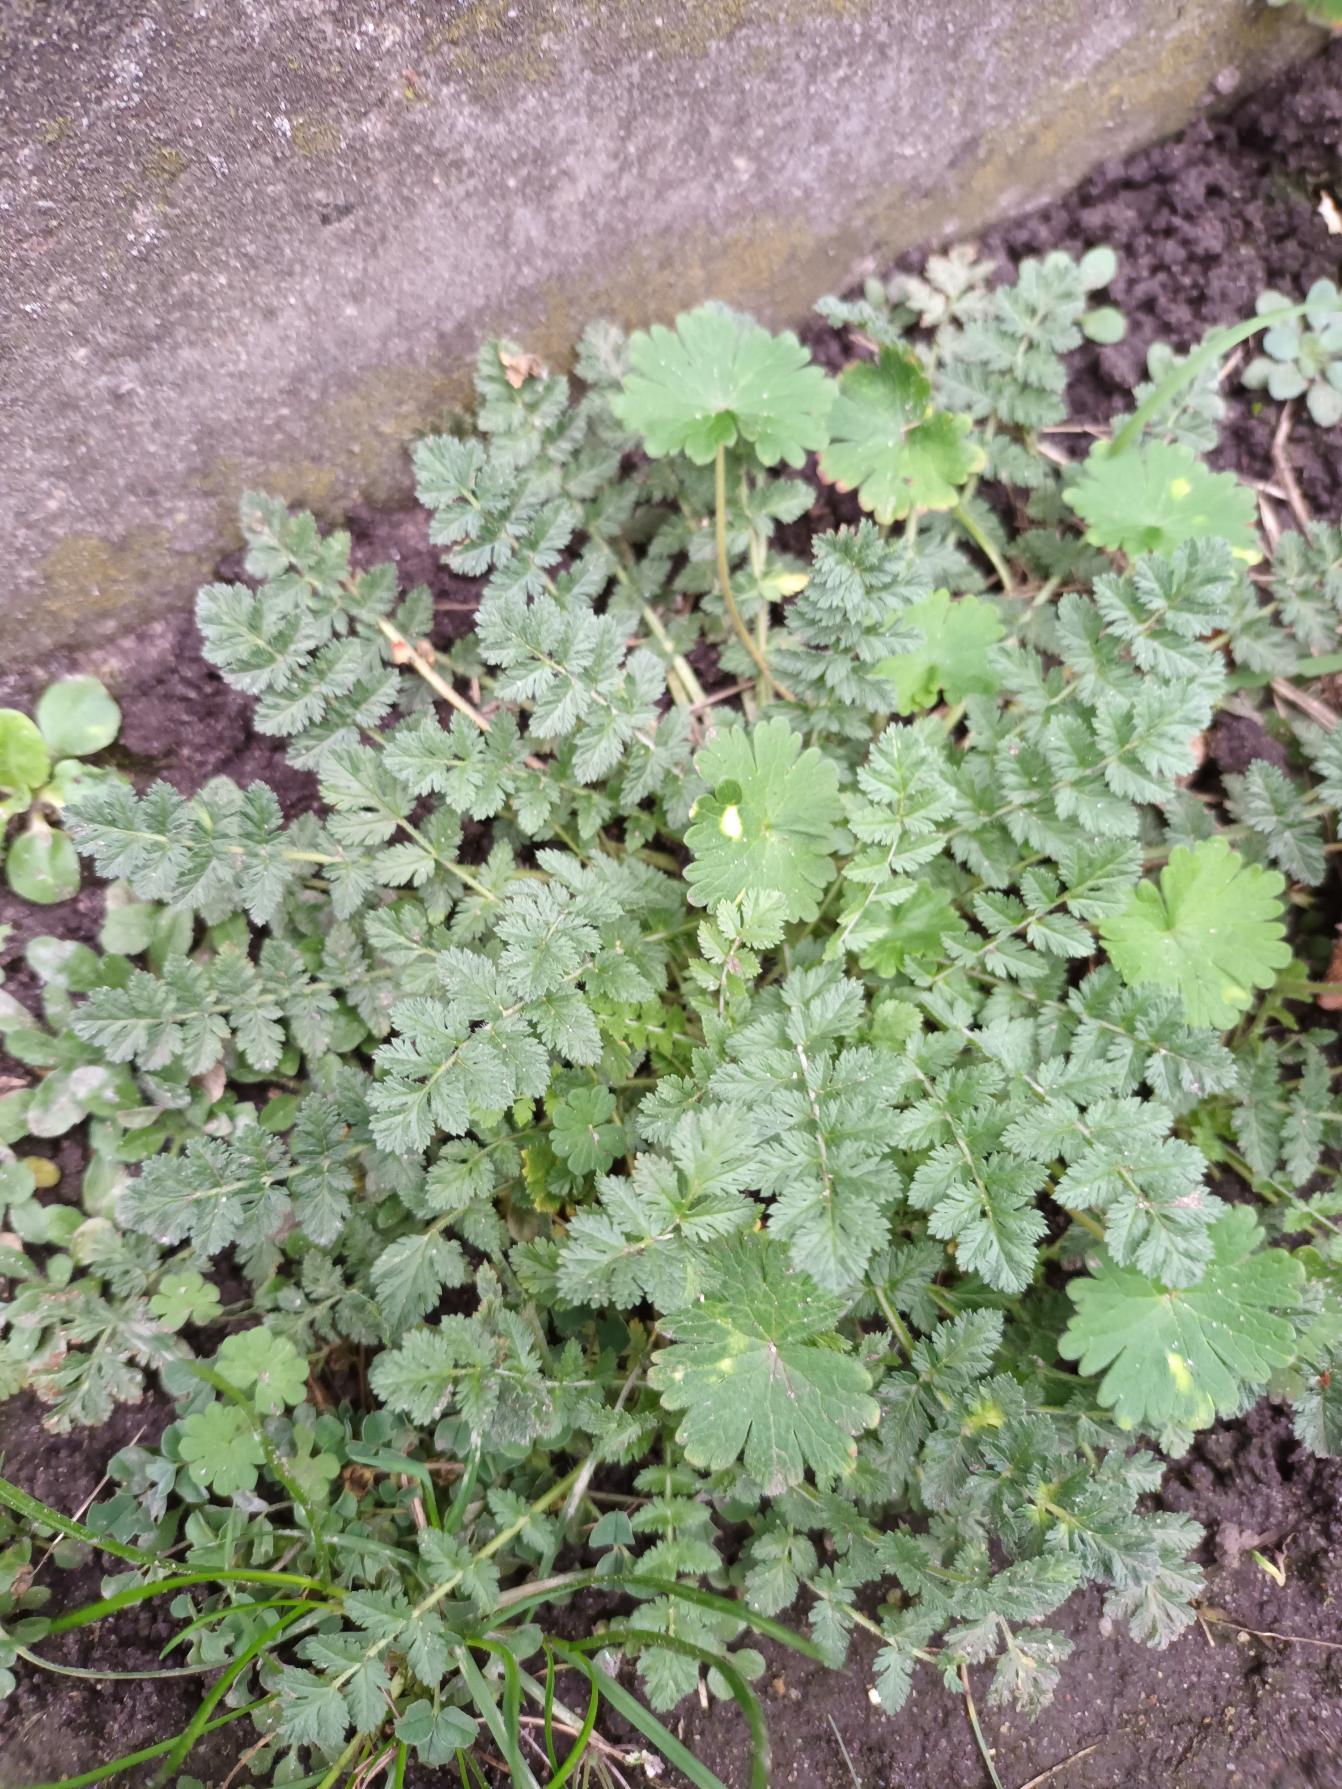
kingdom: Plantae
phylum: Tracheophyta
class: Magnoliopsida
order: Geraniales
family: Geraniaceae
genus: Erodium
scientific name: Erodium cicutarium
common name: Hejrenæb
